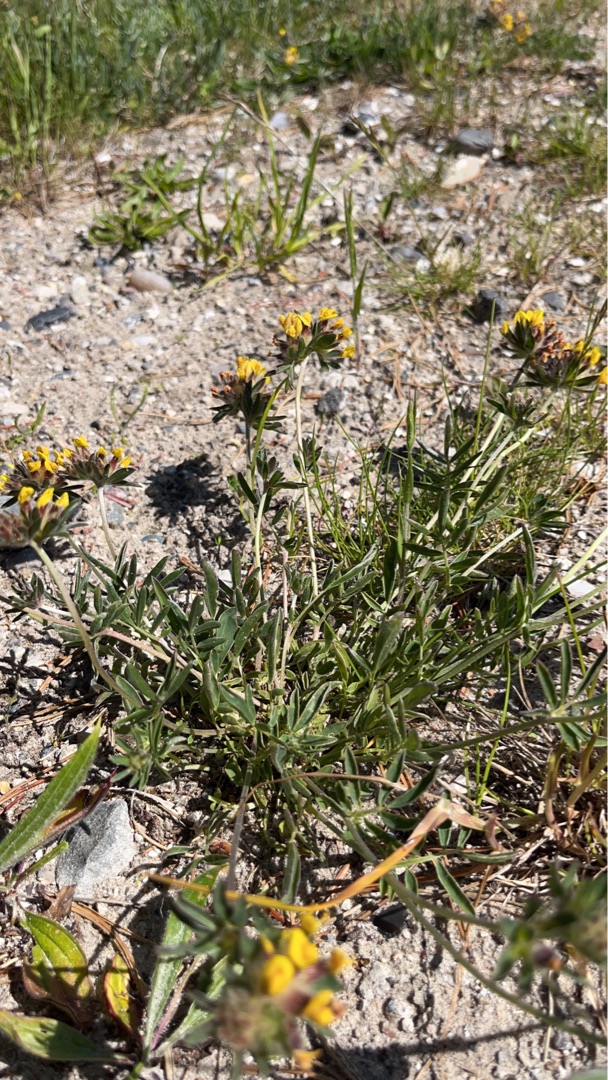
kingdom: Plantae
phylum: Tracheophyta
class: Magnoliopsida
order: Fabales
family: Fabaceae
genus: Anthyllis
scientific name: Anthyllis vulneraria
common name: Rundbælg
